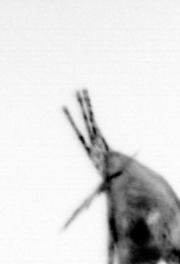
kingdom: Animalia
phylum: Arthropoda
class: Maxillopoda
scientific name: Maxillopoda
